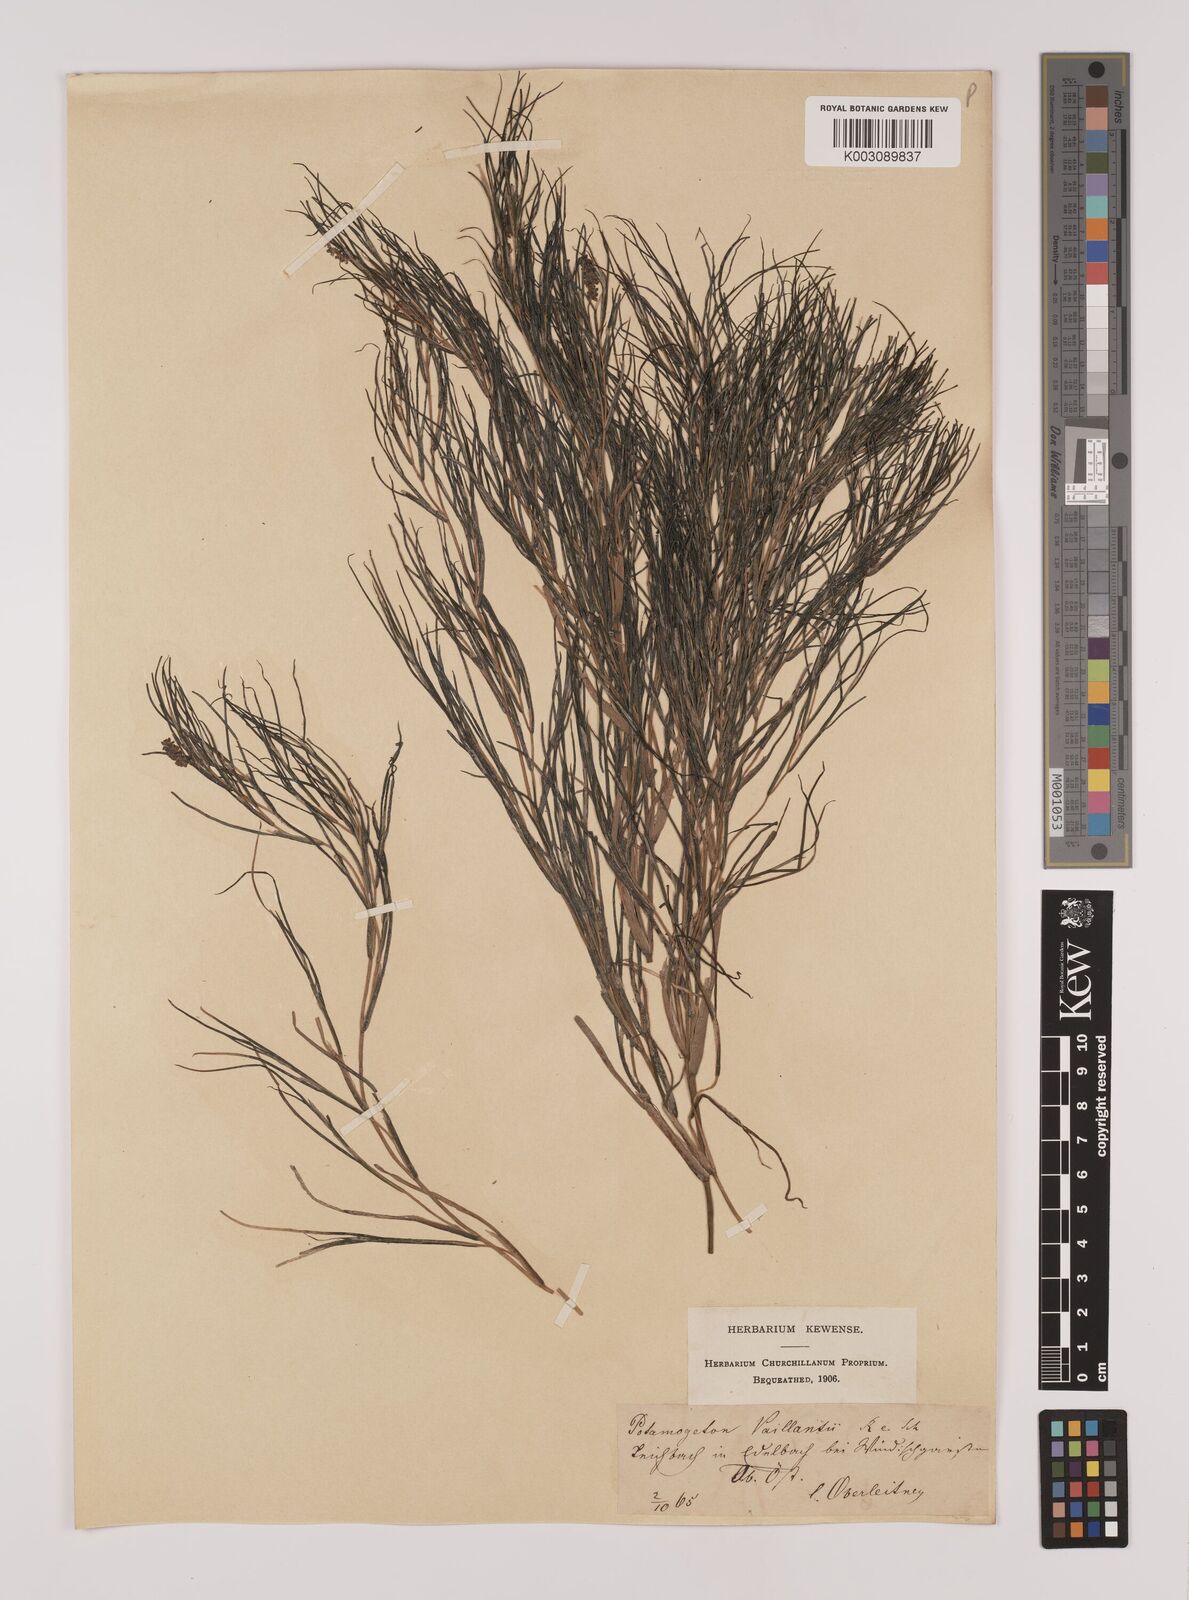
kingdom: Plantae
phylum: Tracheophyta
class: Liliopsida
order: Alismatales
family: Potamogetonaceae
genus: Stuckenia
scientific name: Stuckenia pectinata
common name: Sago pondweed
